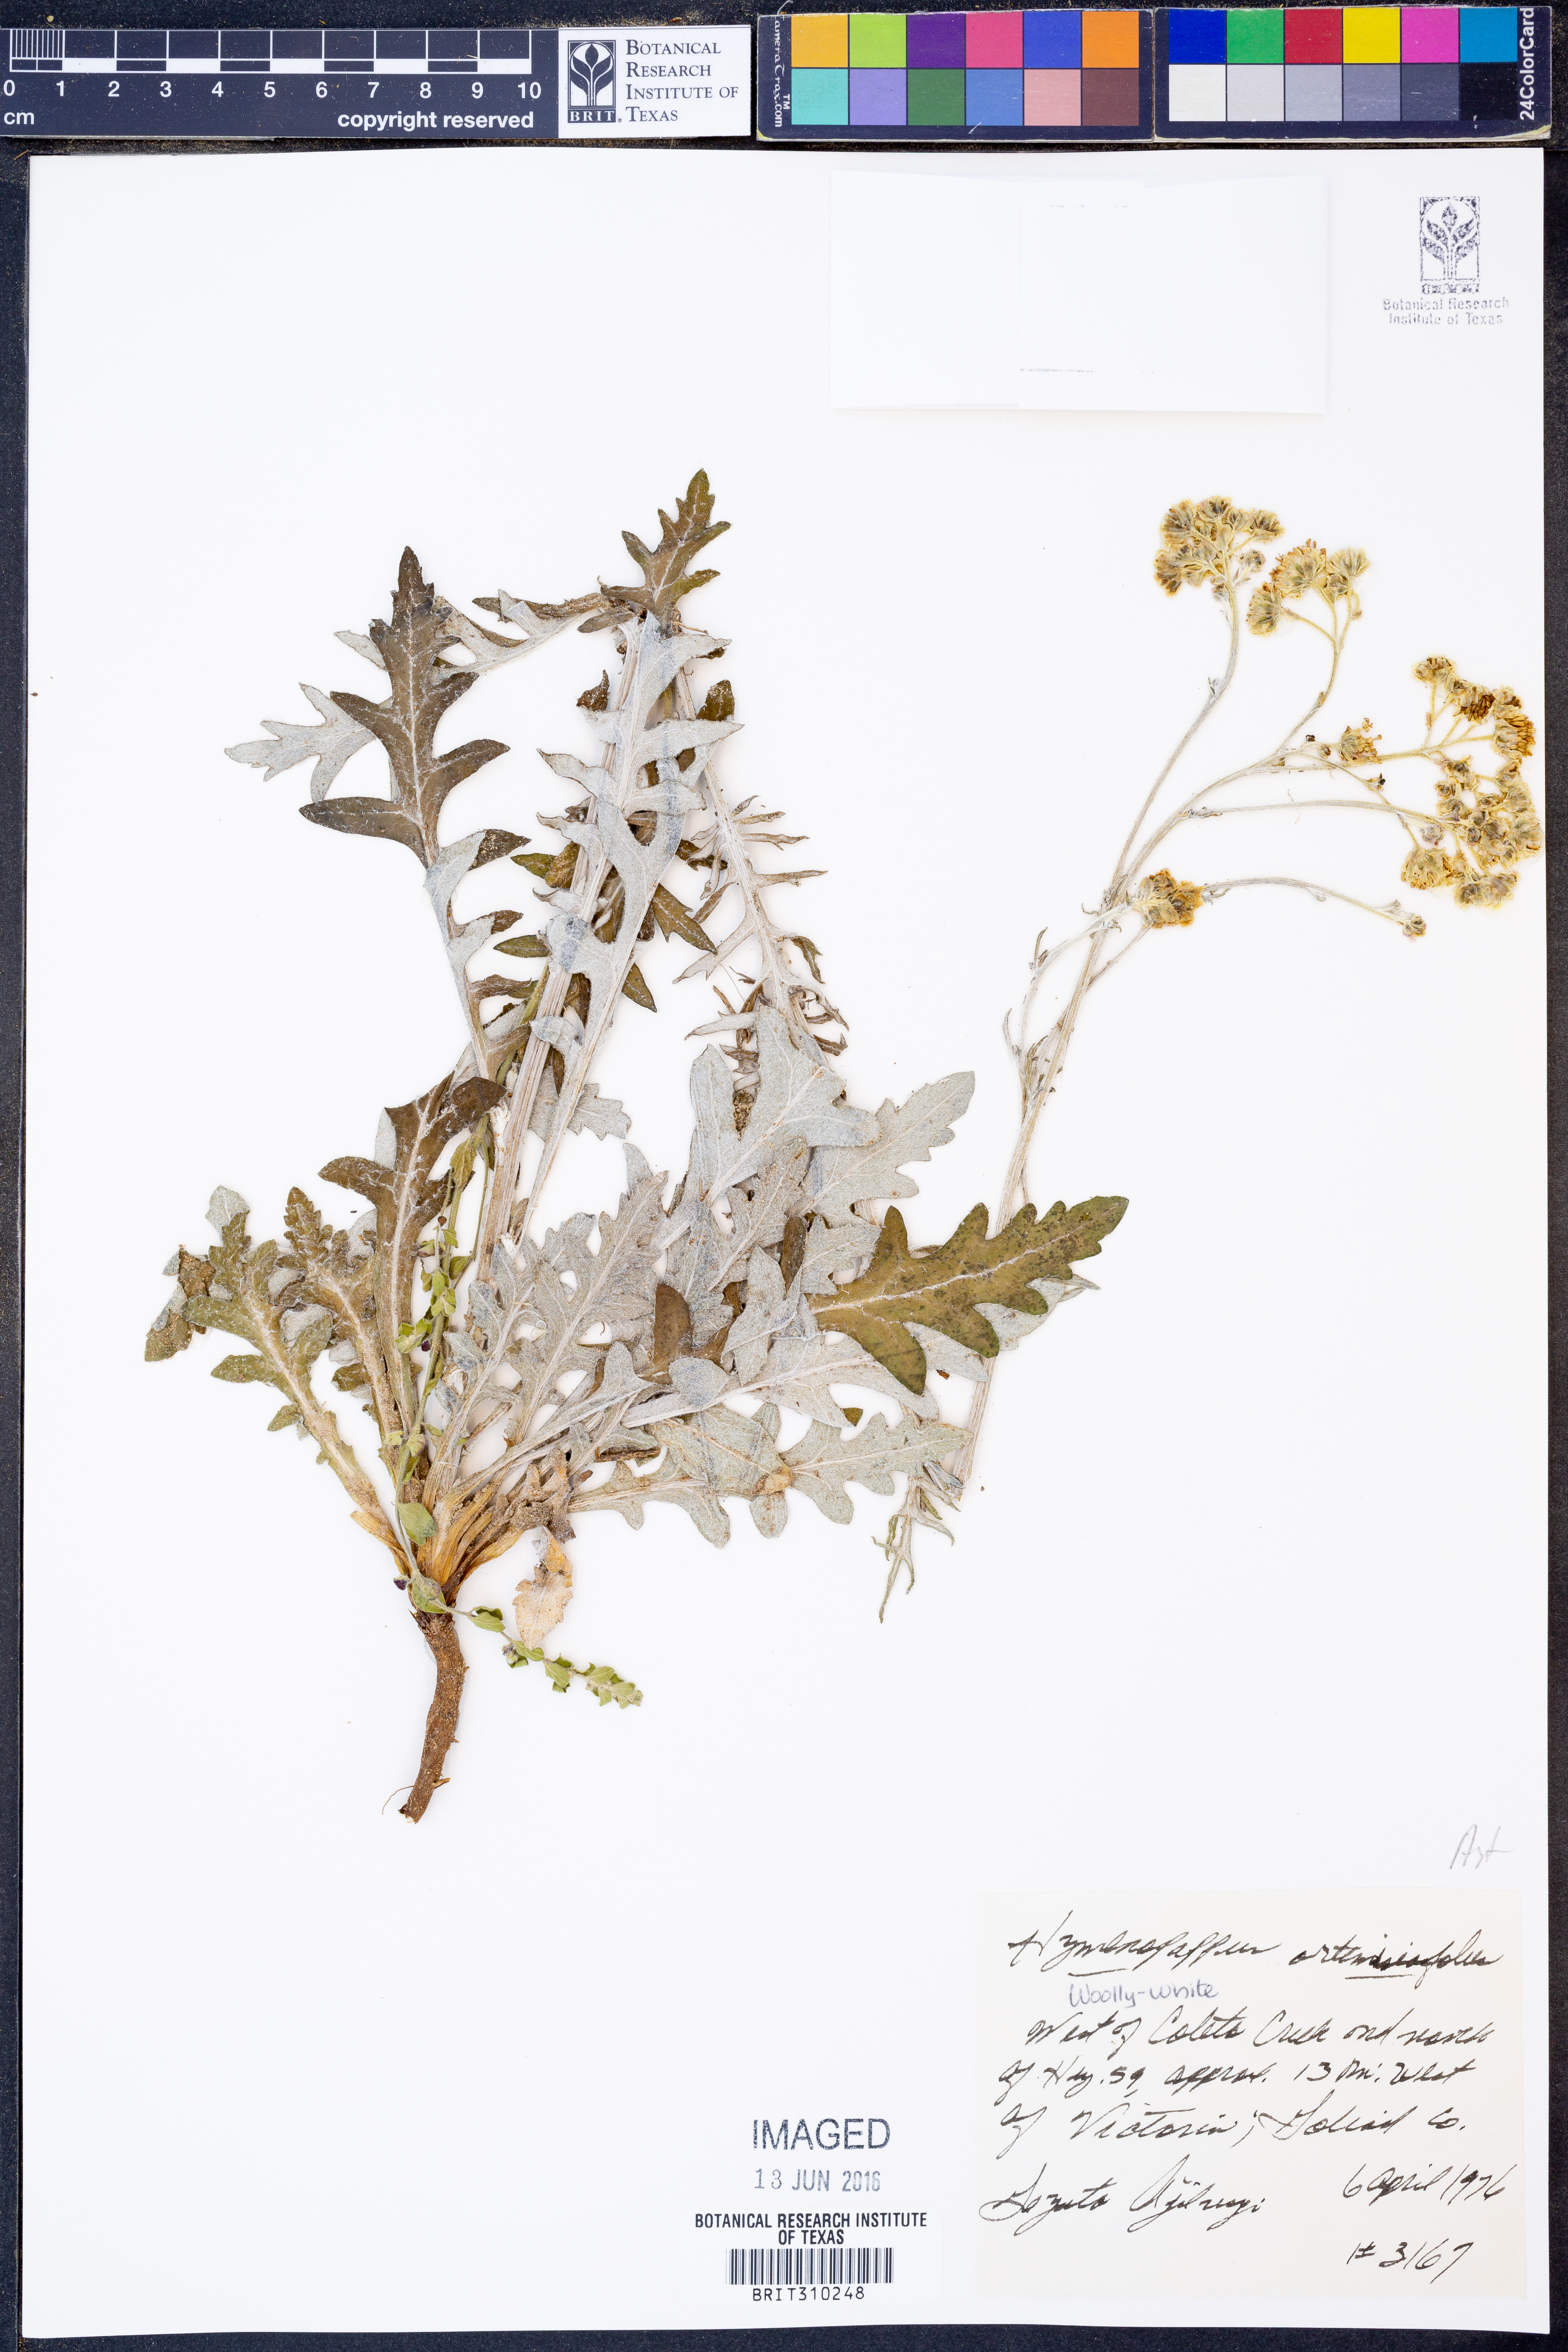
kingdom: Plantae
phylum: Tracheophyta
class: Magnoliopsida
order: Asterales
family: Asteraceae
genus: Hymenopappus
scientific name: Hymenopappus artemisiifolius
